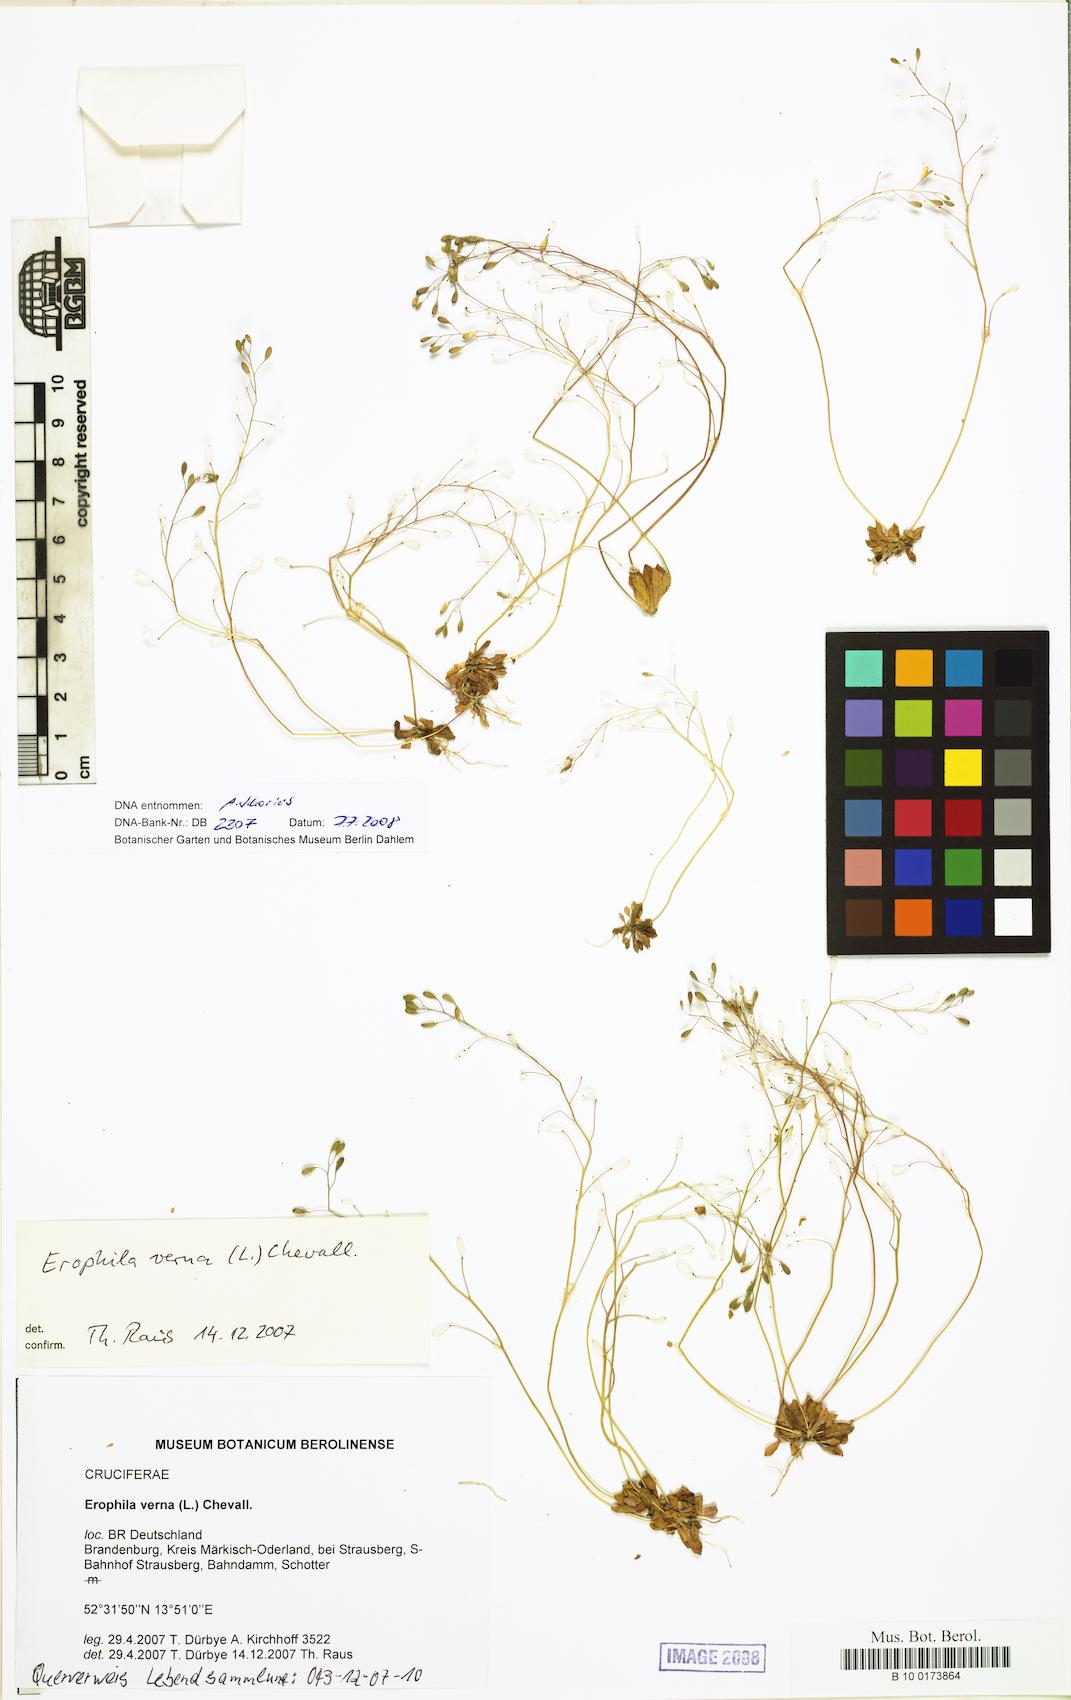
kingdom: Plantae
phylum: Tracheophyta
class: Magnoliopsida
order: Brassicales
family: Brassicaceae
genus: Draba
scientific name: Draba verna
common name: Spring draba
